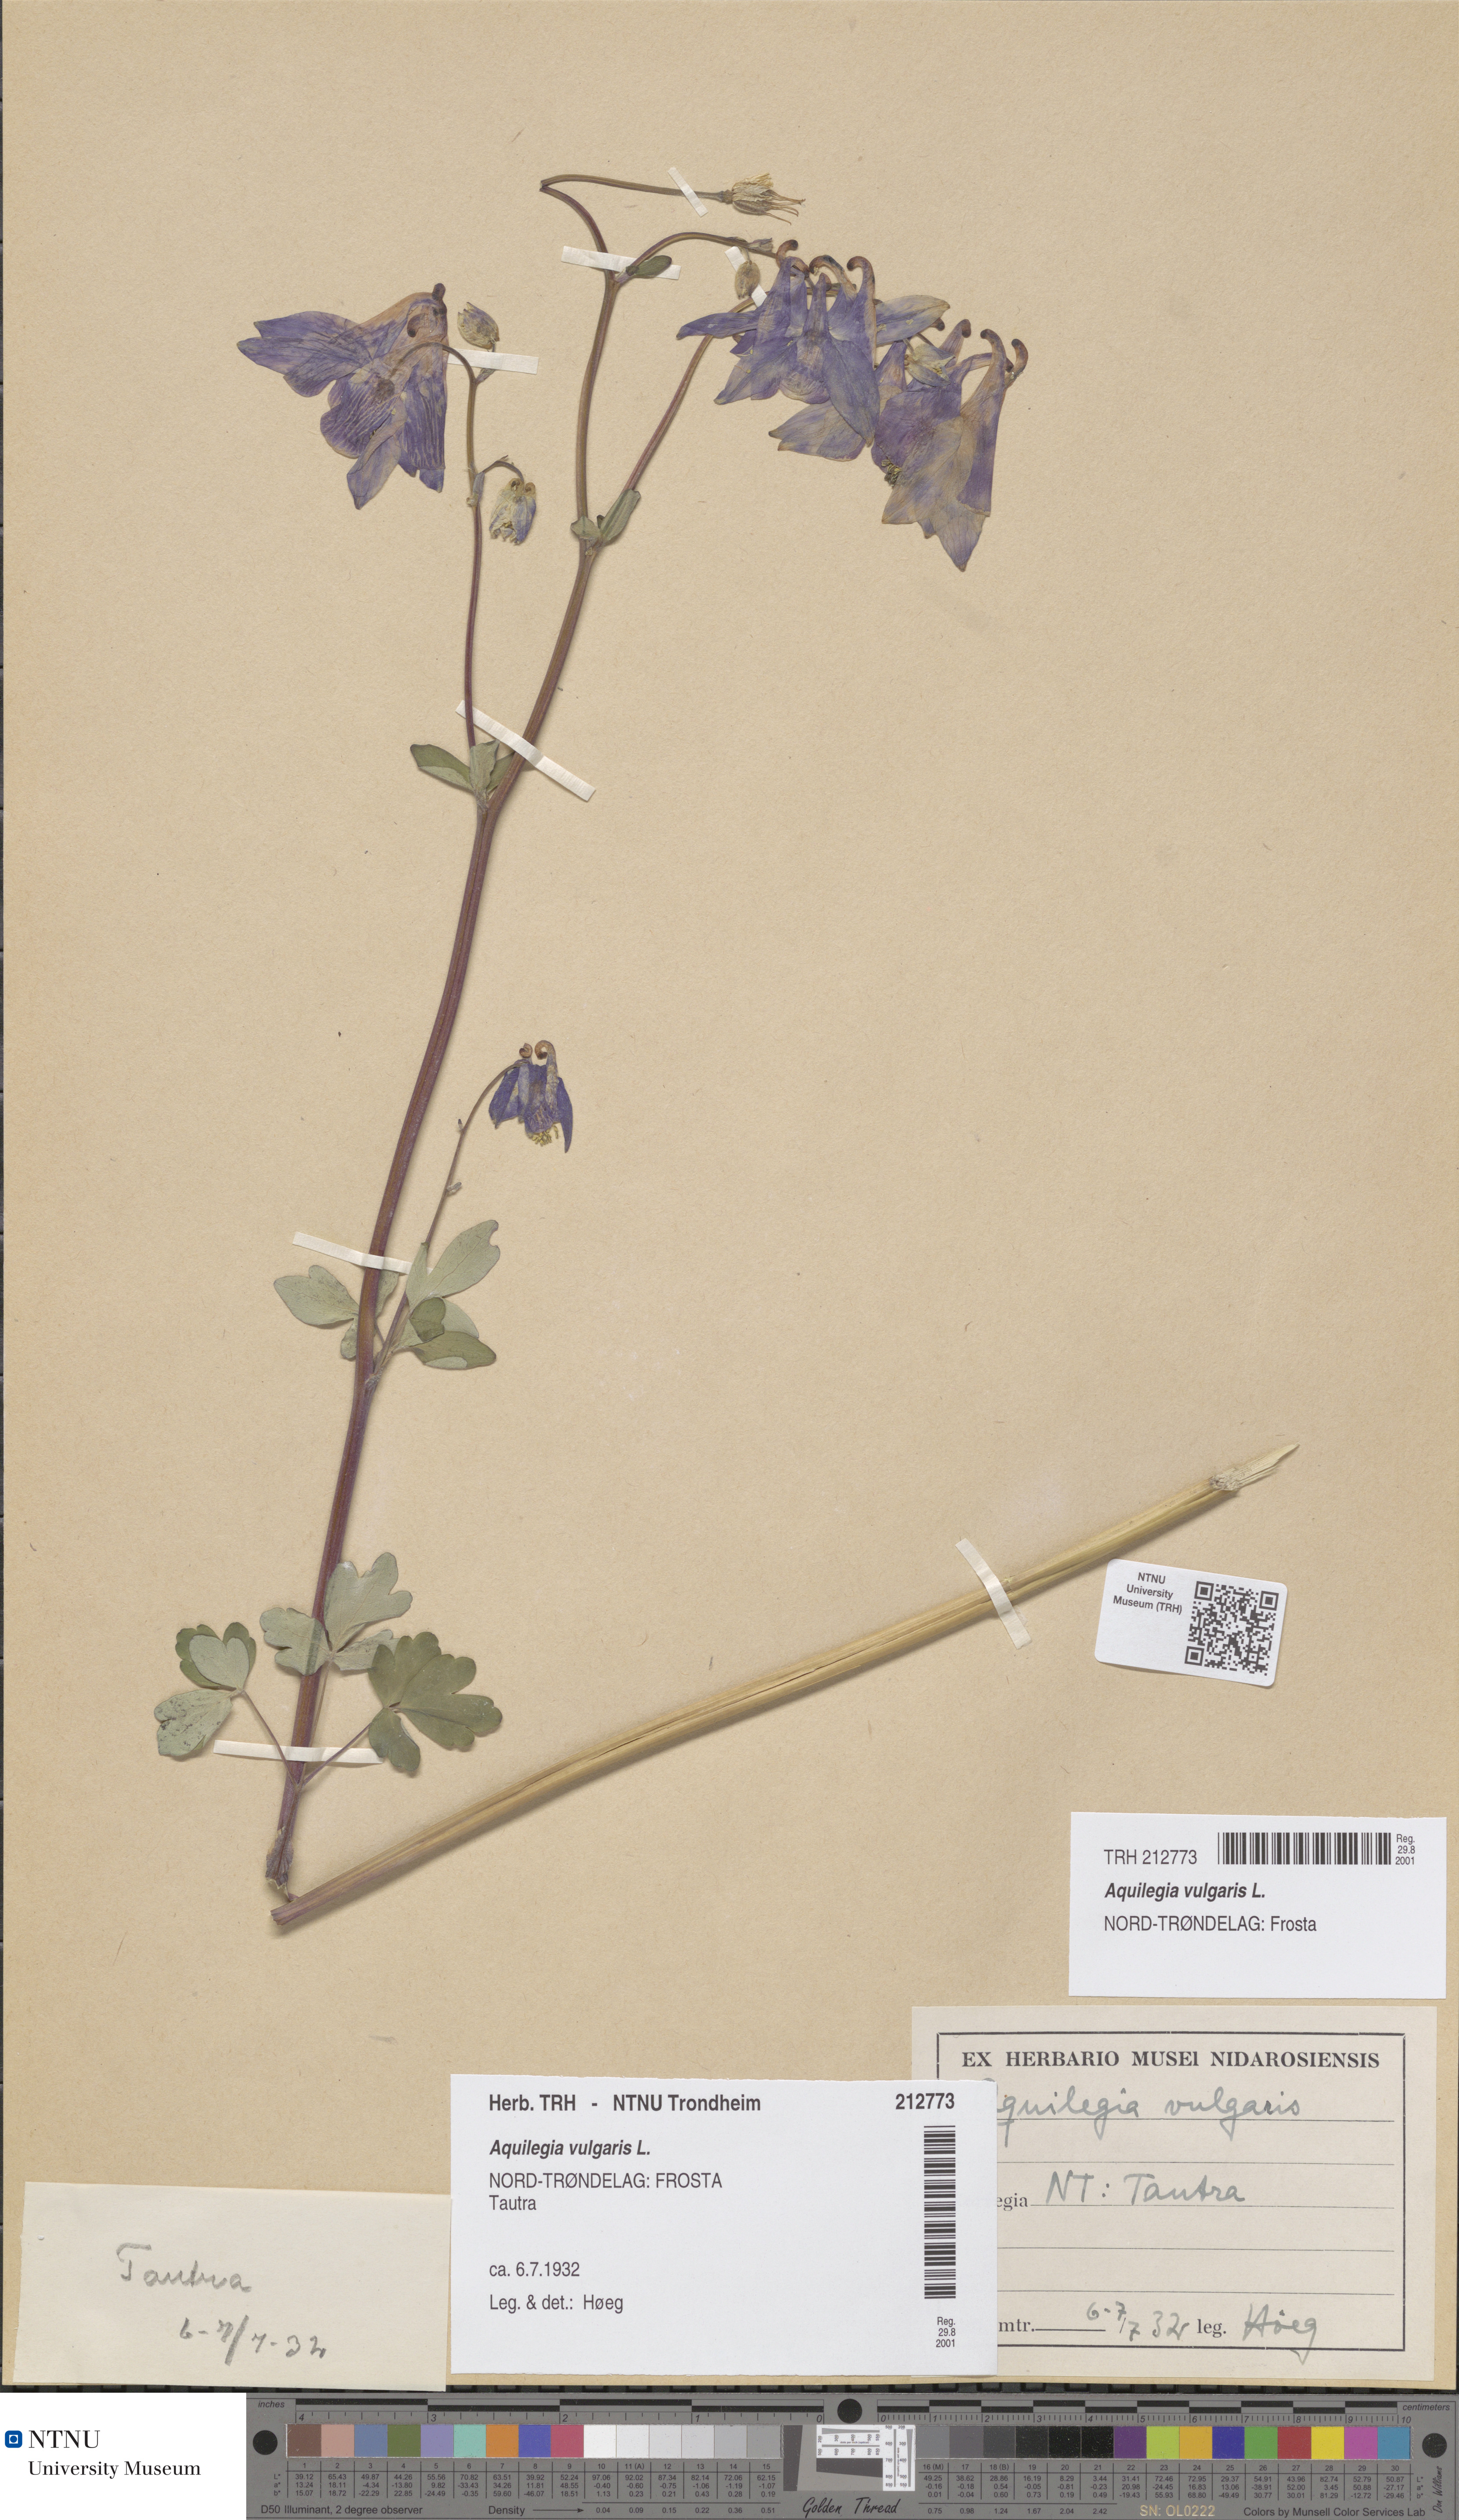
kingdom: Plantae
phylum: Tracheophyta
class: Magnoliopsida
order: Ranunculales
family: Ranunculaceae
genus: Aquilegia
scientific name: Aquilegia vulgaris
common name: Columbine
